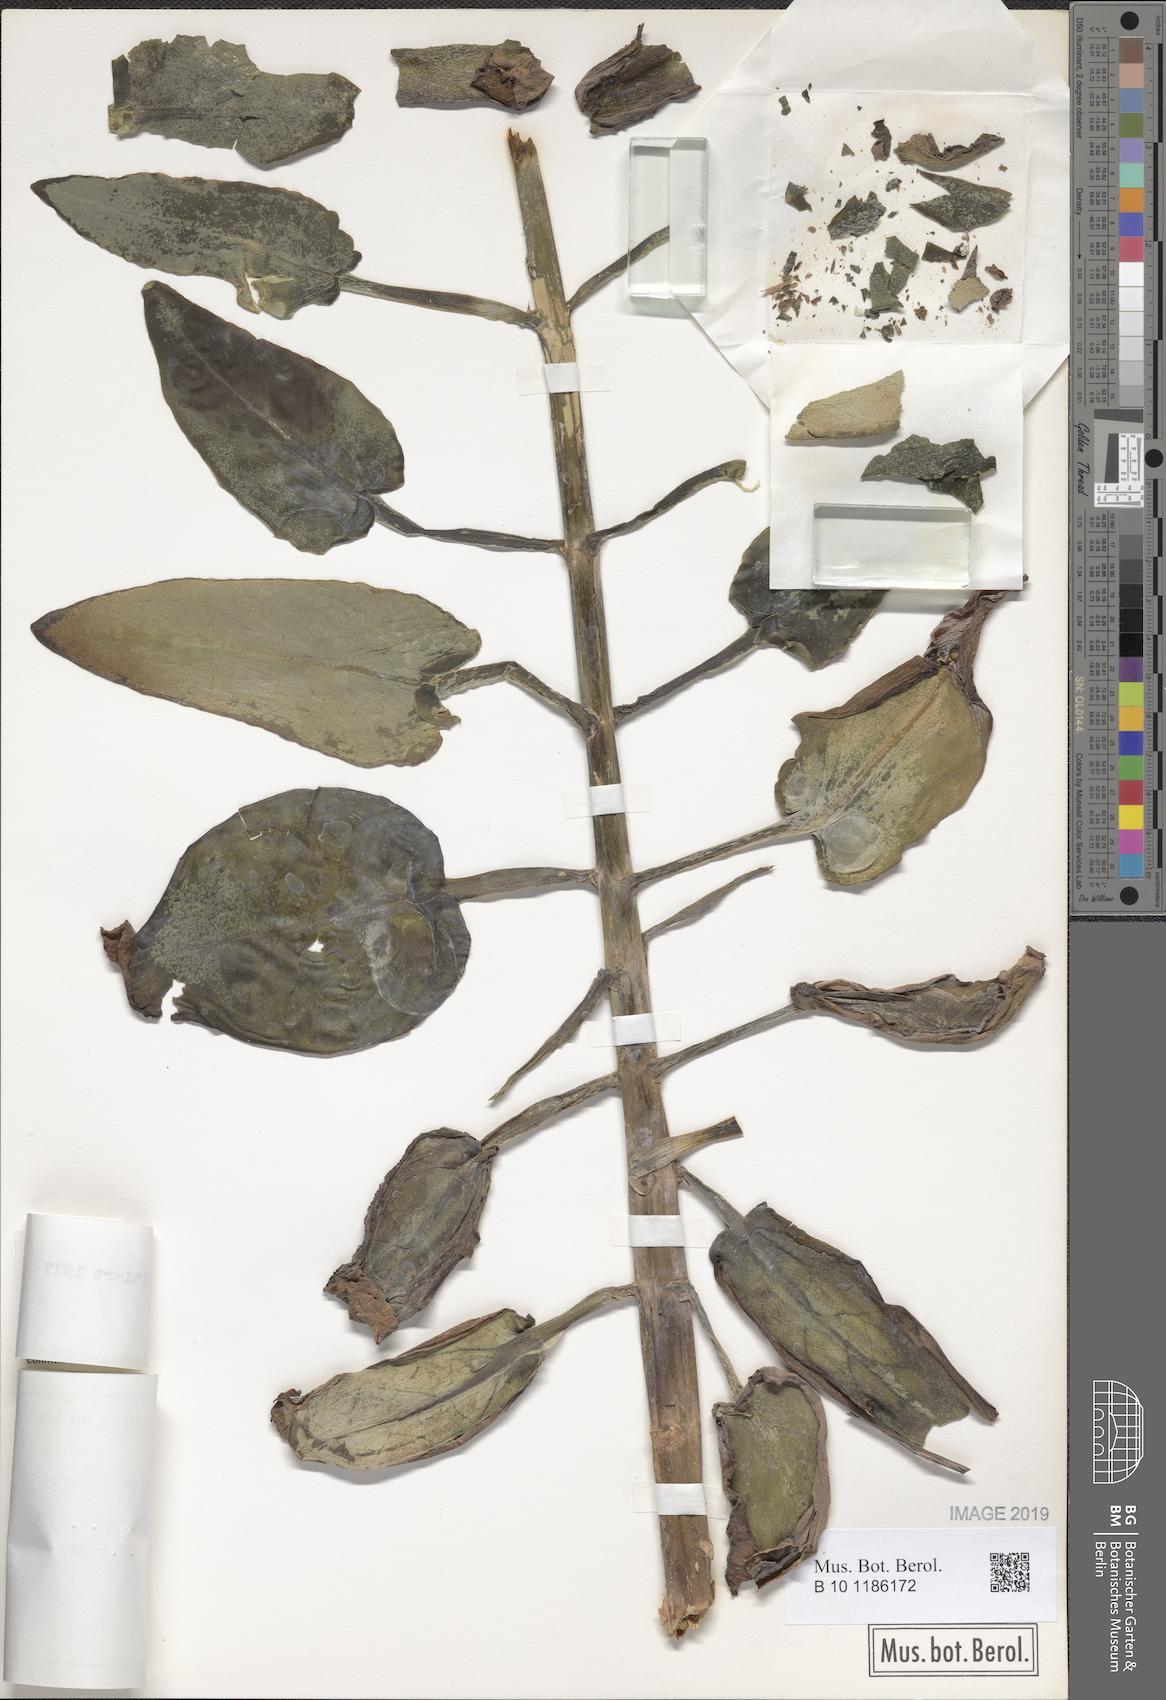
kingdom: Plantae
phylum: Tracheophyta
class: Magnoliopsida
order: Saxifragales
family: Crassulaceae
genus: Kalanchoe
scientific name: Kalanchoe mitejea
